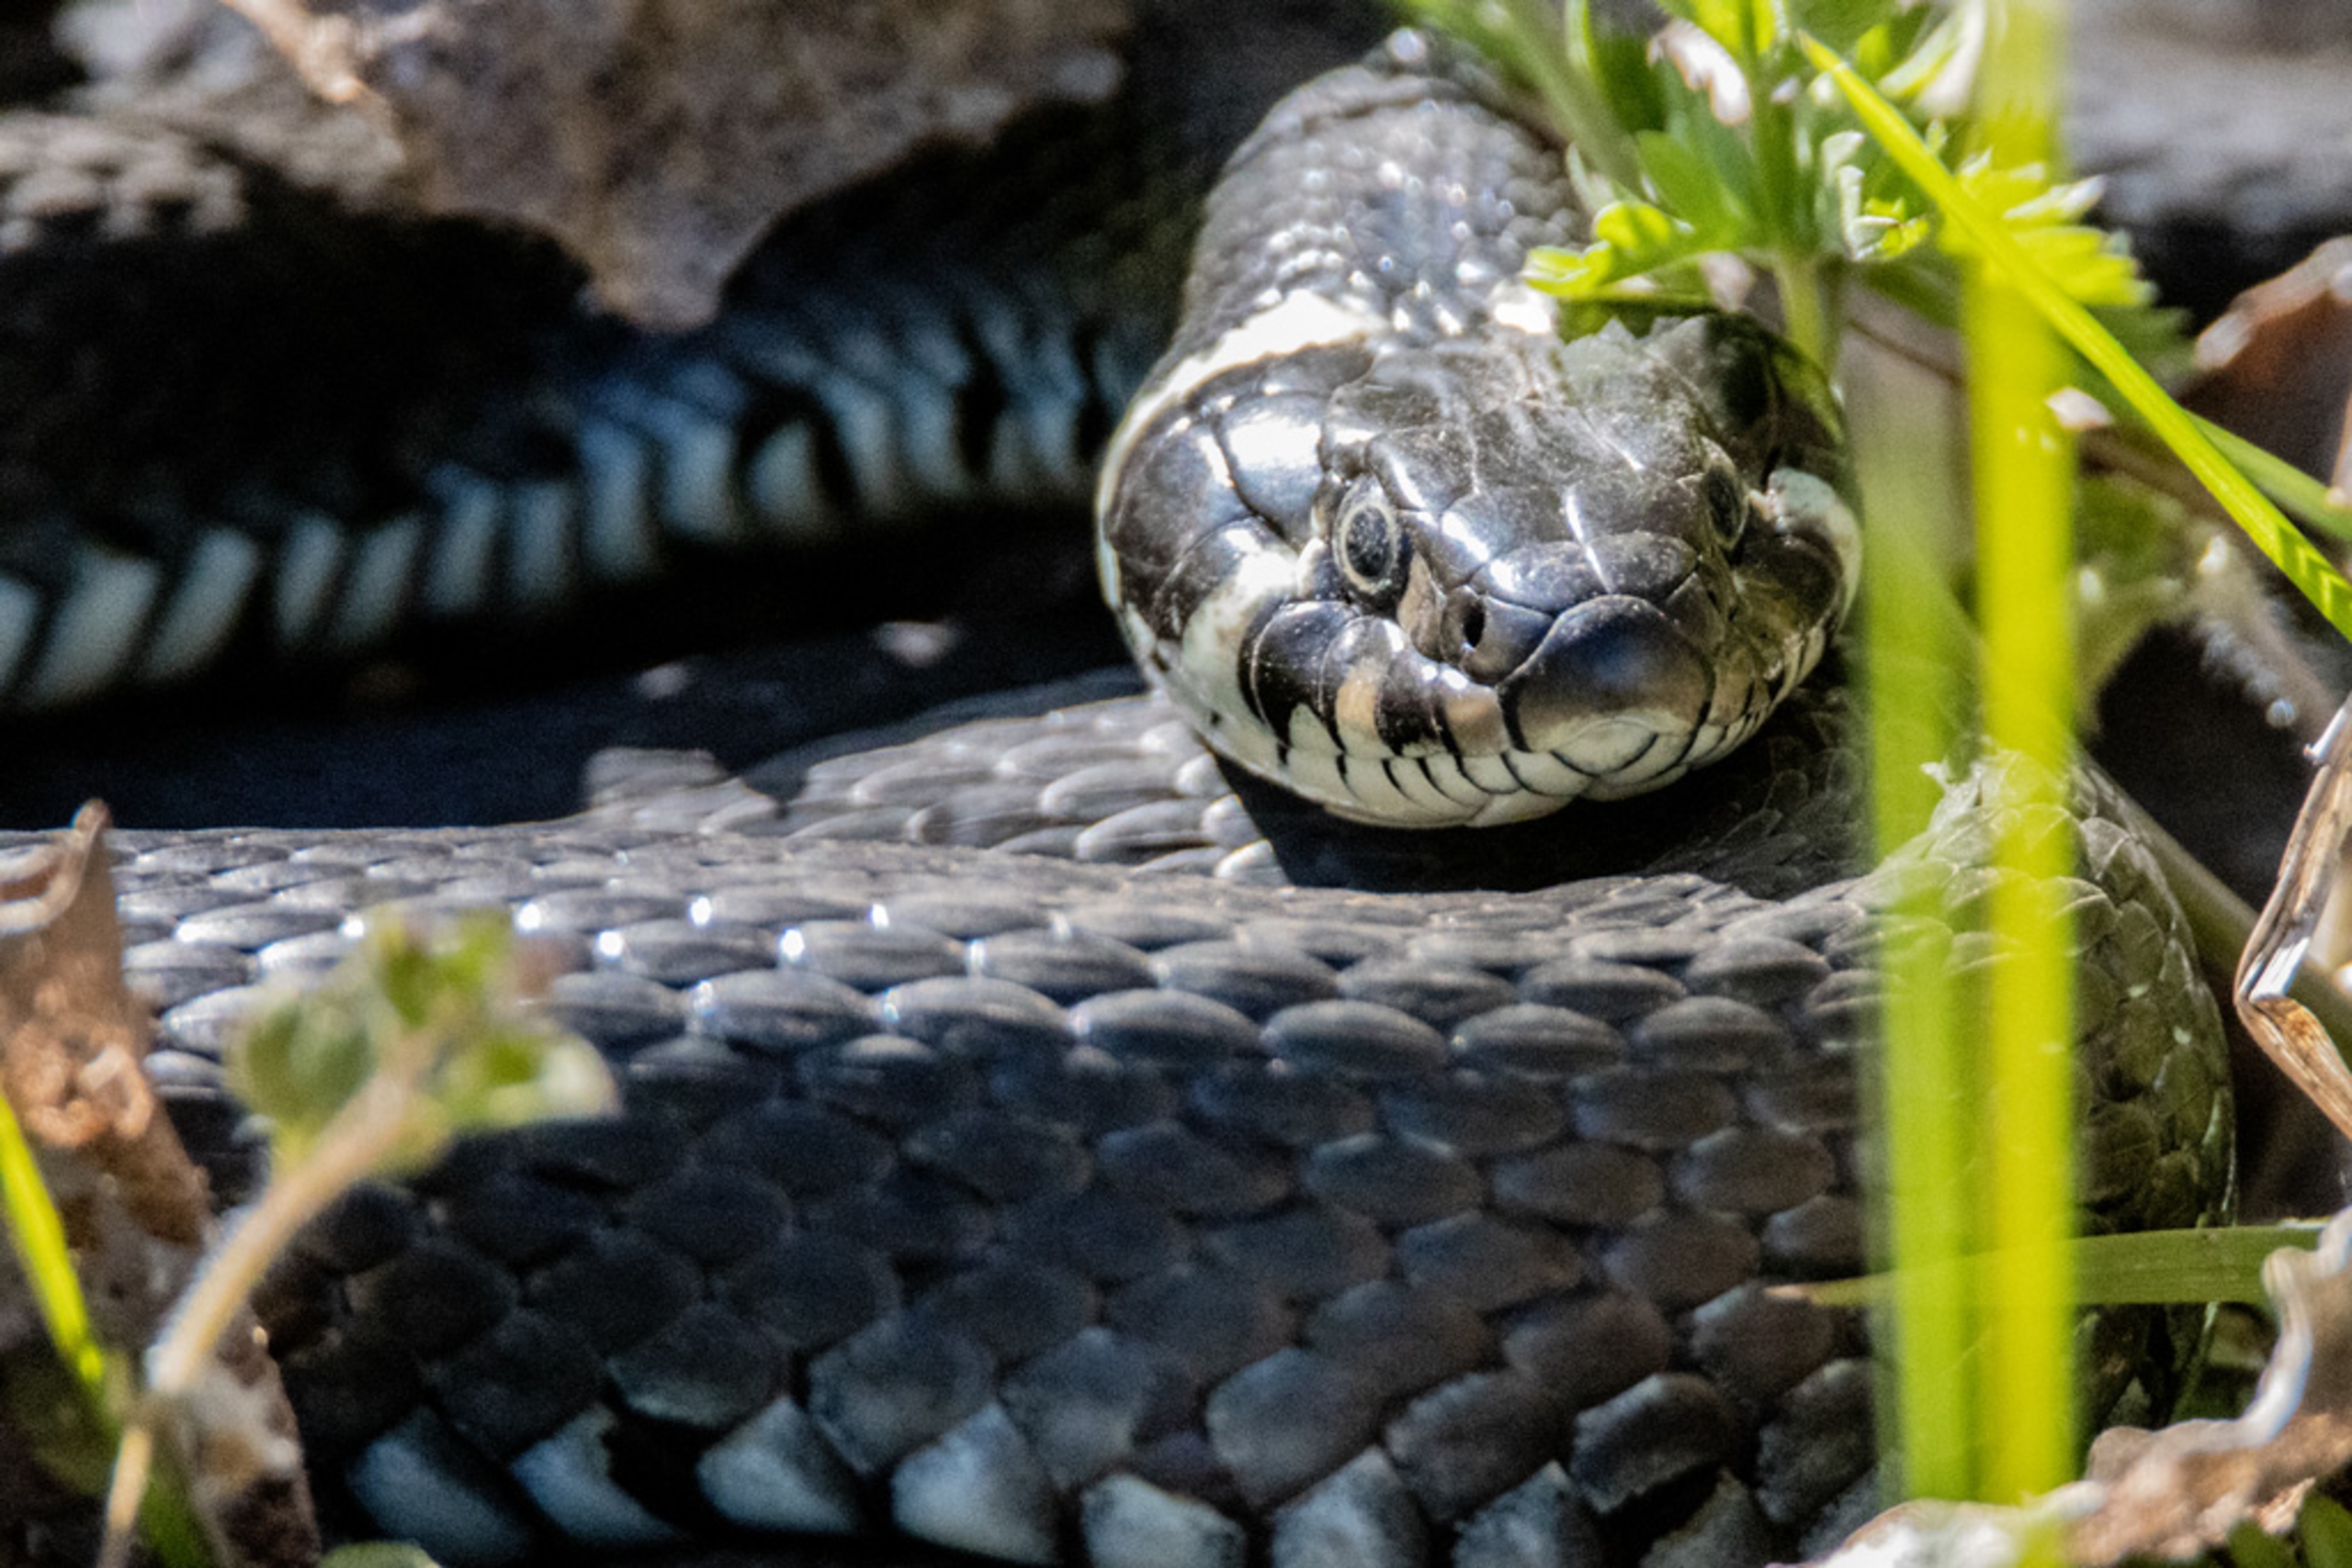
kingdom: Animalia
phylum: Chordata
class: Squamata
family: Colubridae
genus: Natrix
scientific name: Natrix natrix
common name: Snog
